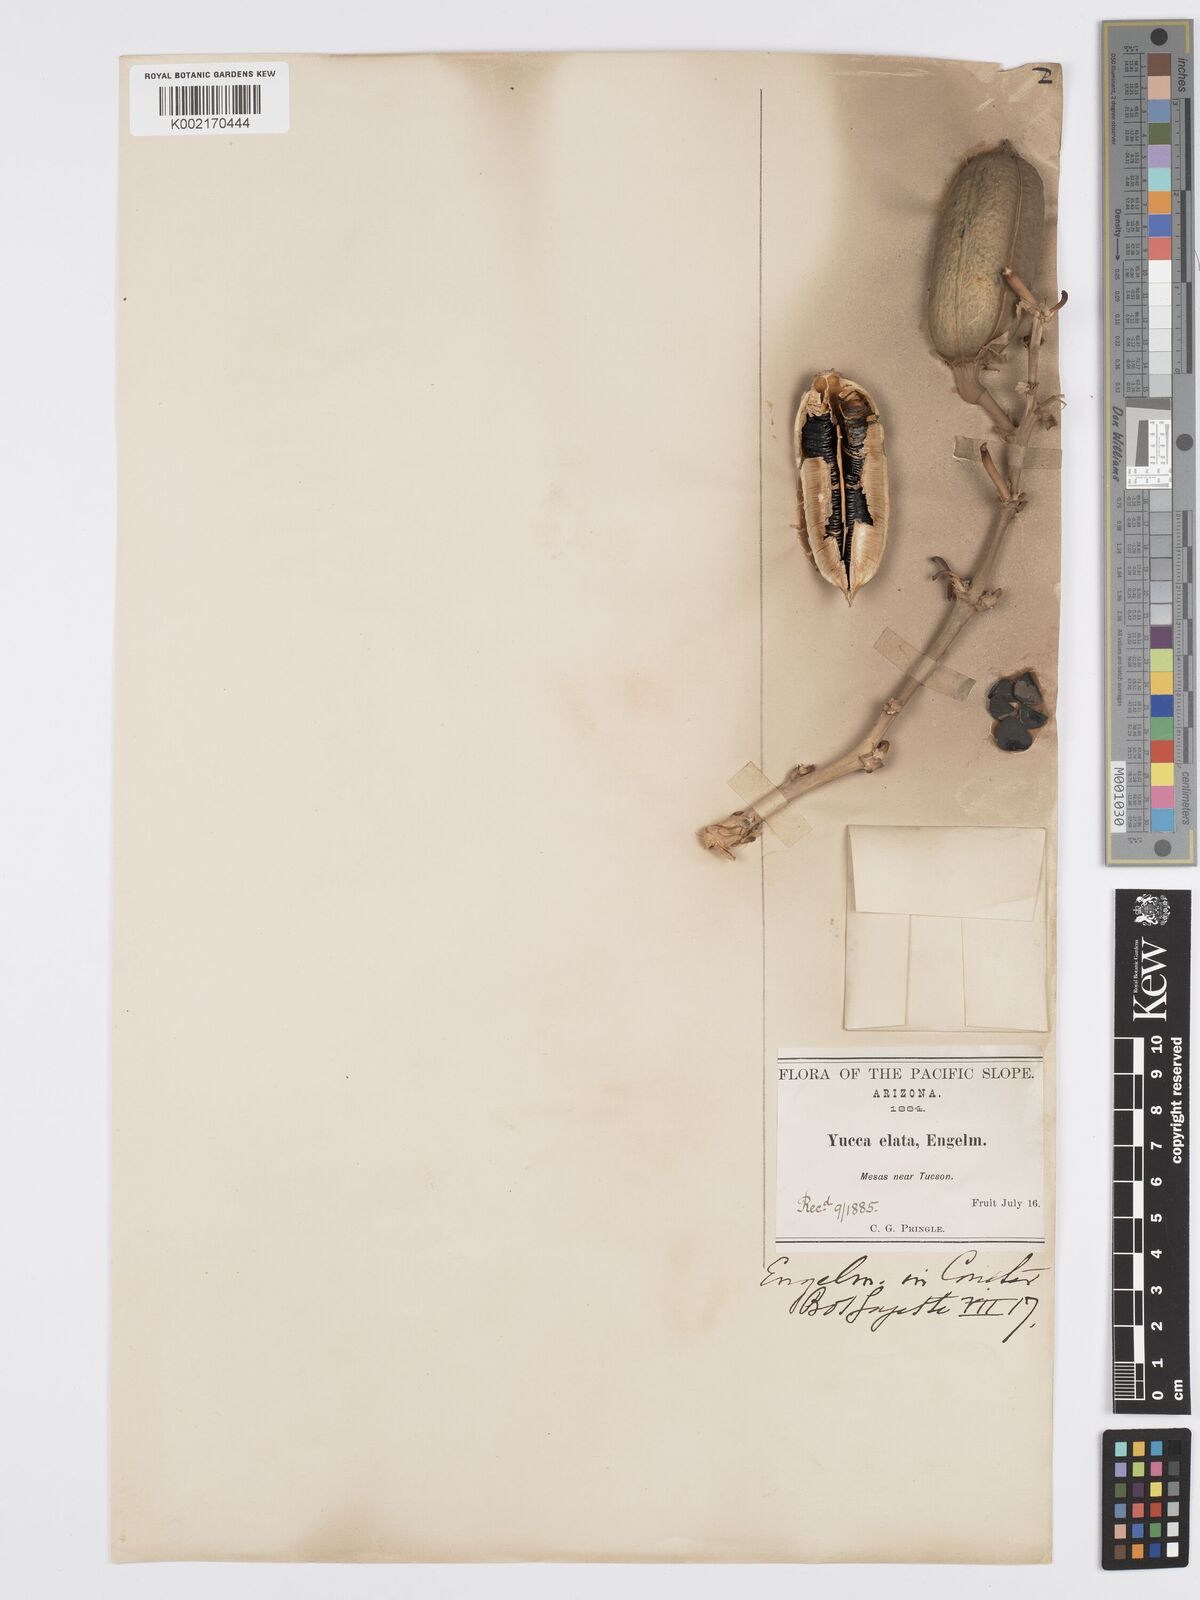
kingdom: Plantae
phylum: Tracheophyta
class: Liliopsida
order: Asparagales
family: Asparagaceae
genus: Yucca
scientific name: Yucca elata
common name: Palmella
